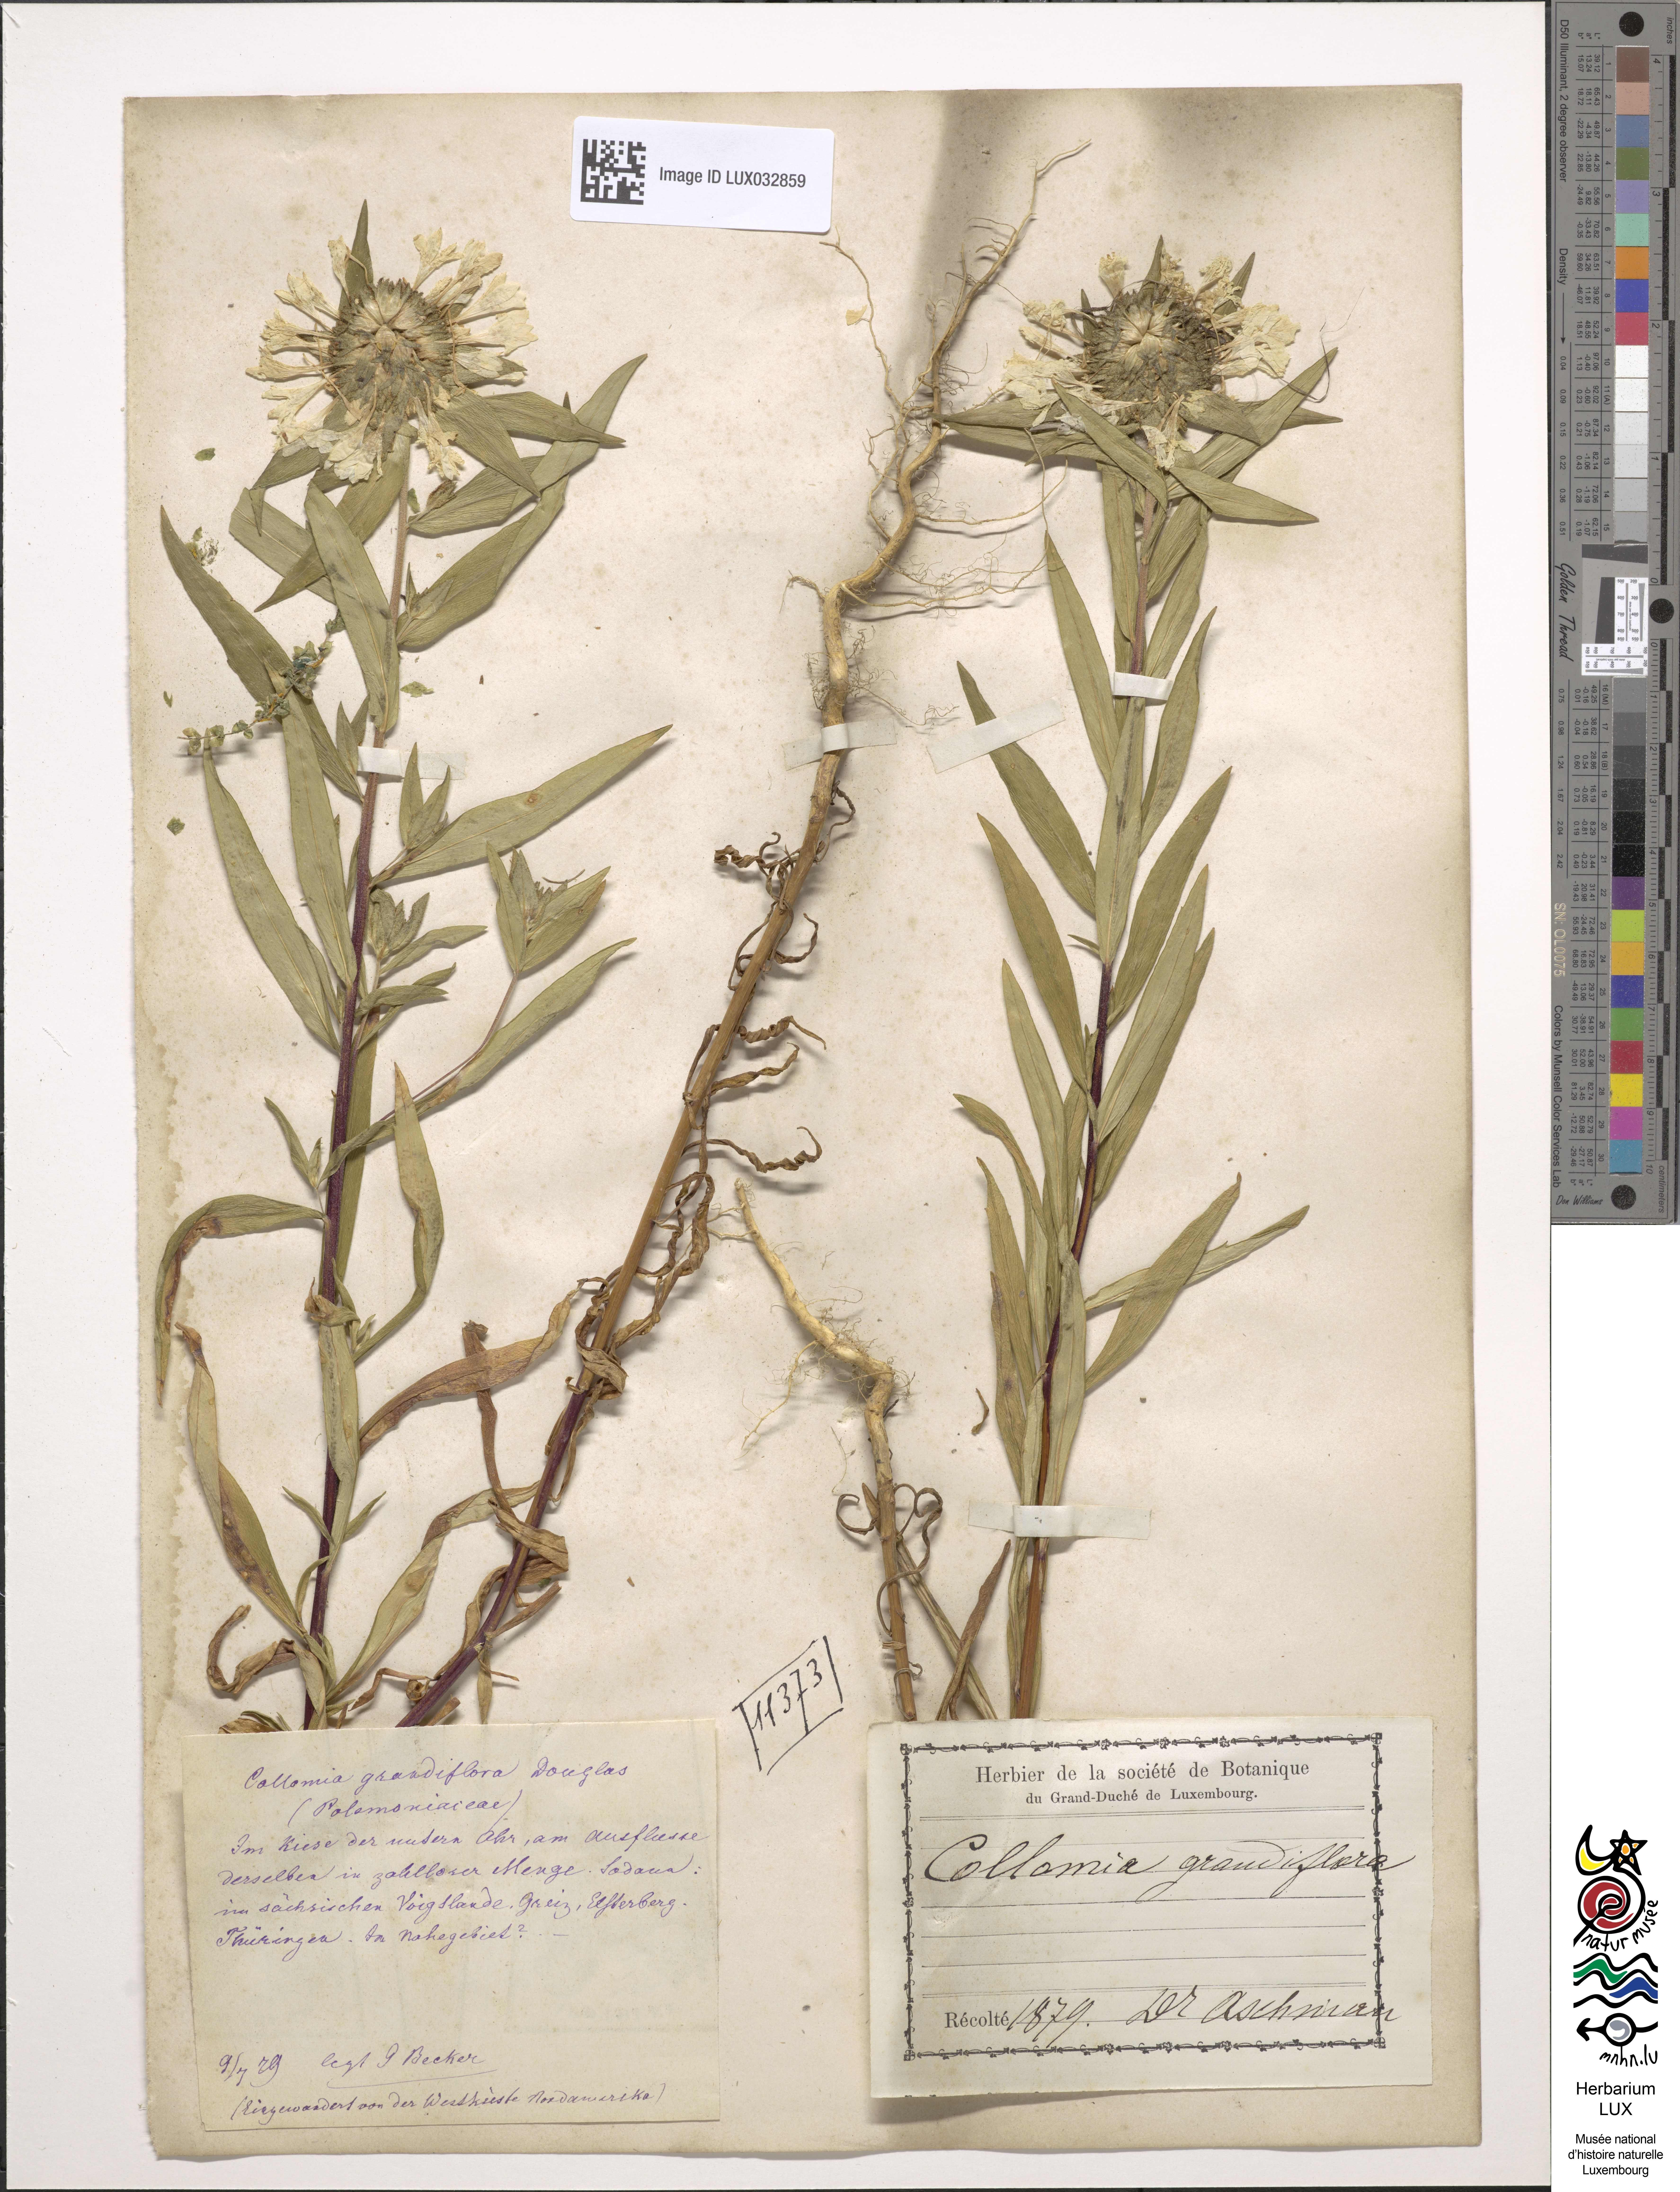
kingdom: Plantae
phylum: Tracheophyta
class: Magnoliopsida
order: Ericales
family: Polemoniaceae
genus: Collomia
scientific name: Collomia grandiflora
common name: California strawflower
